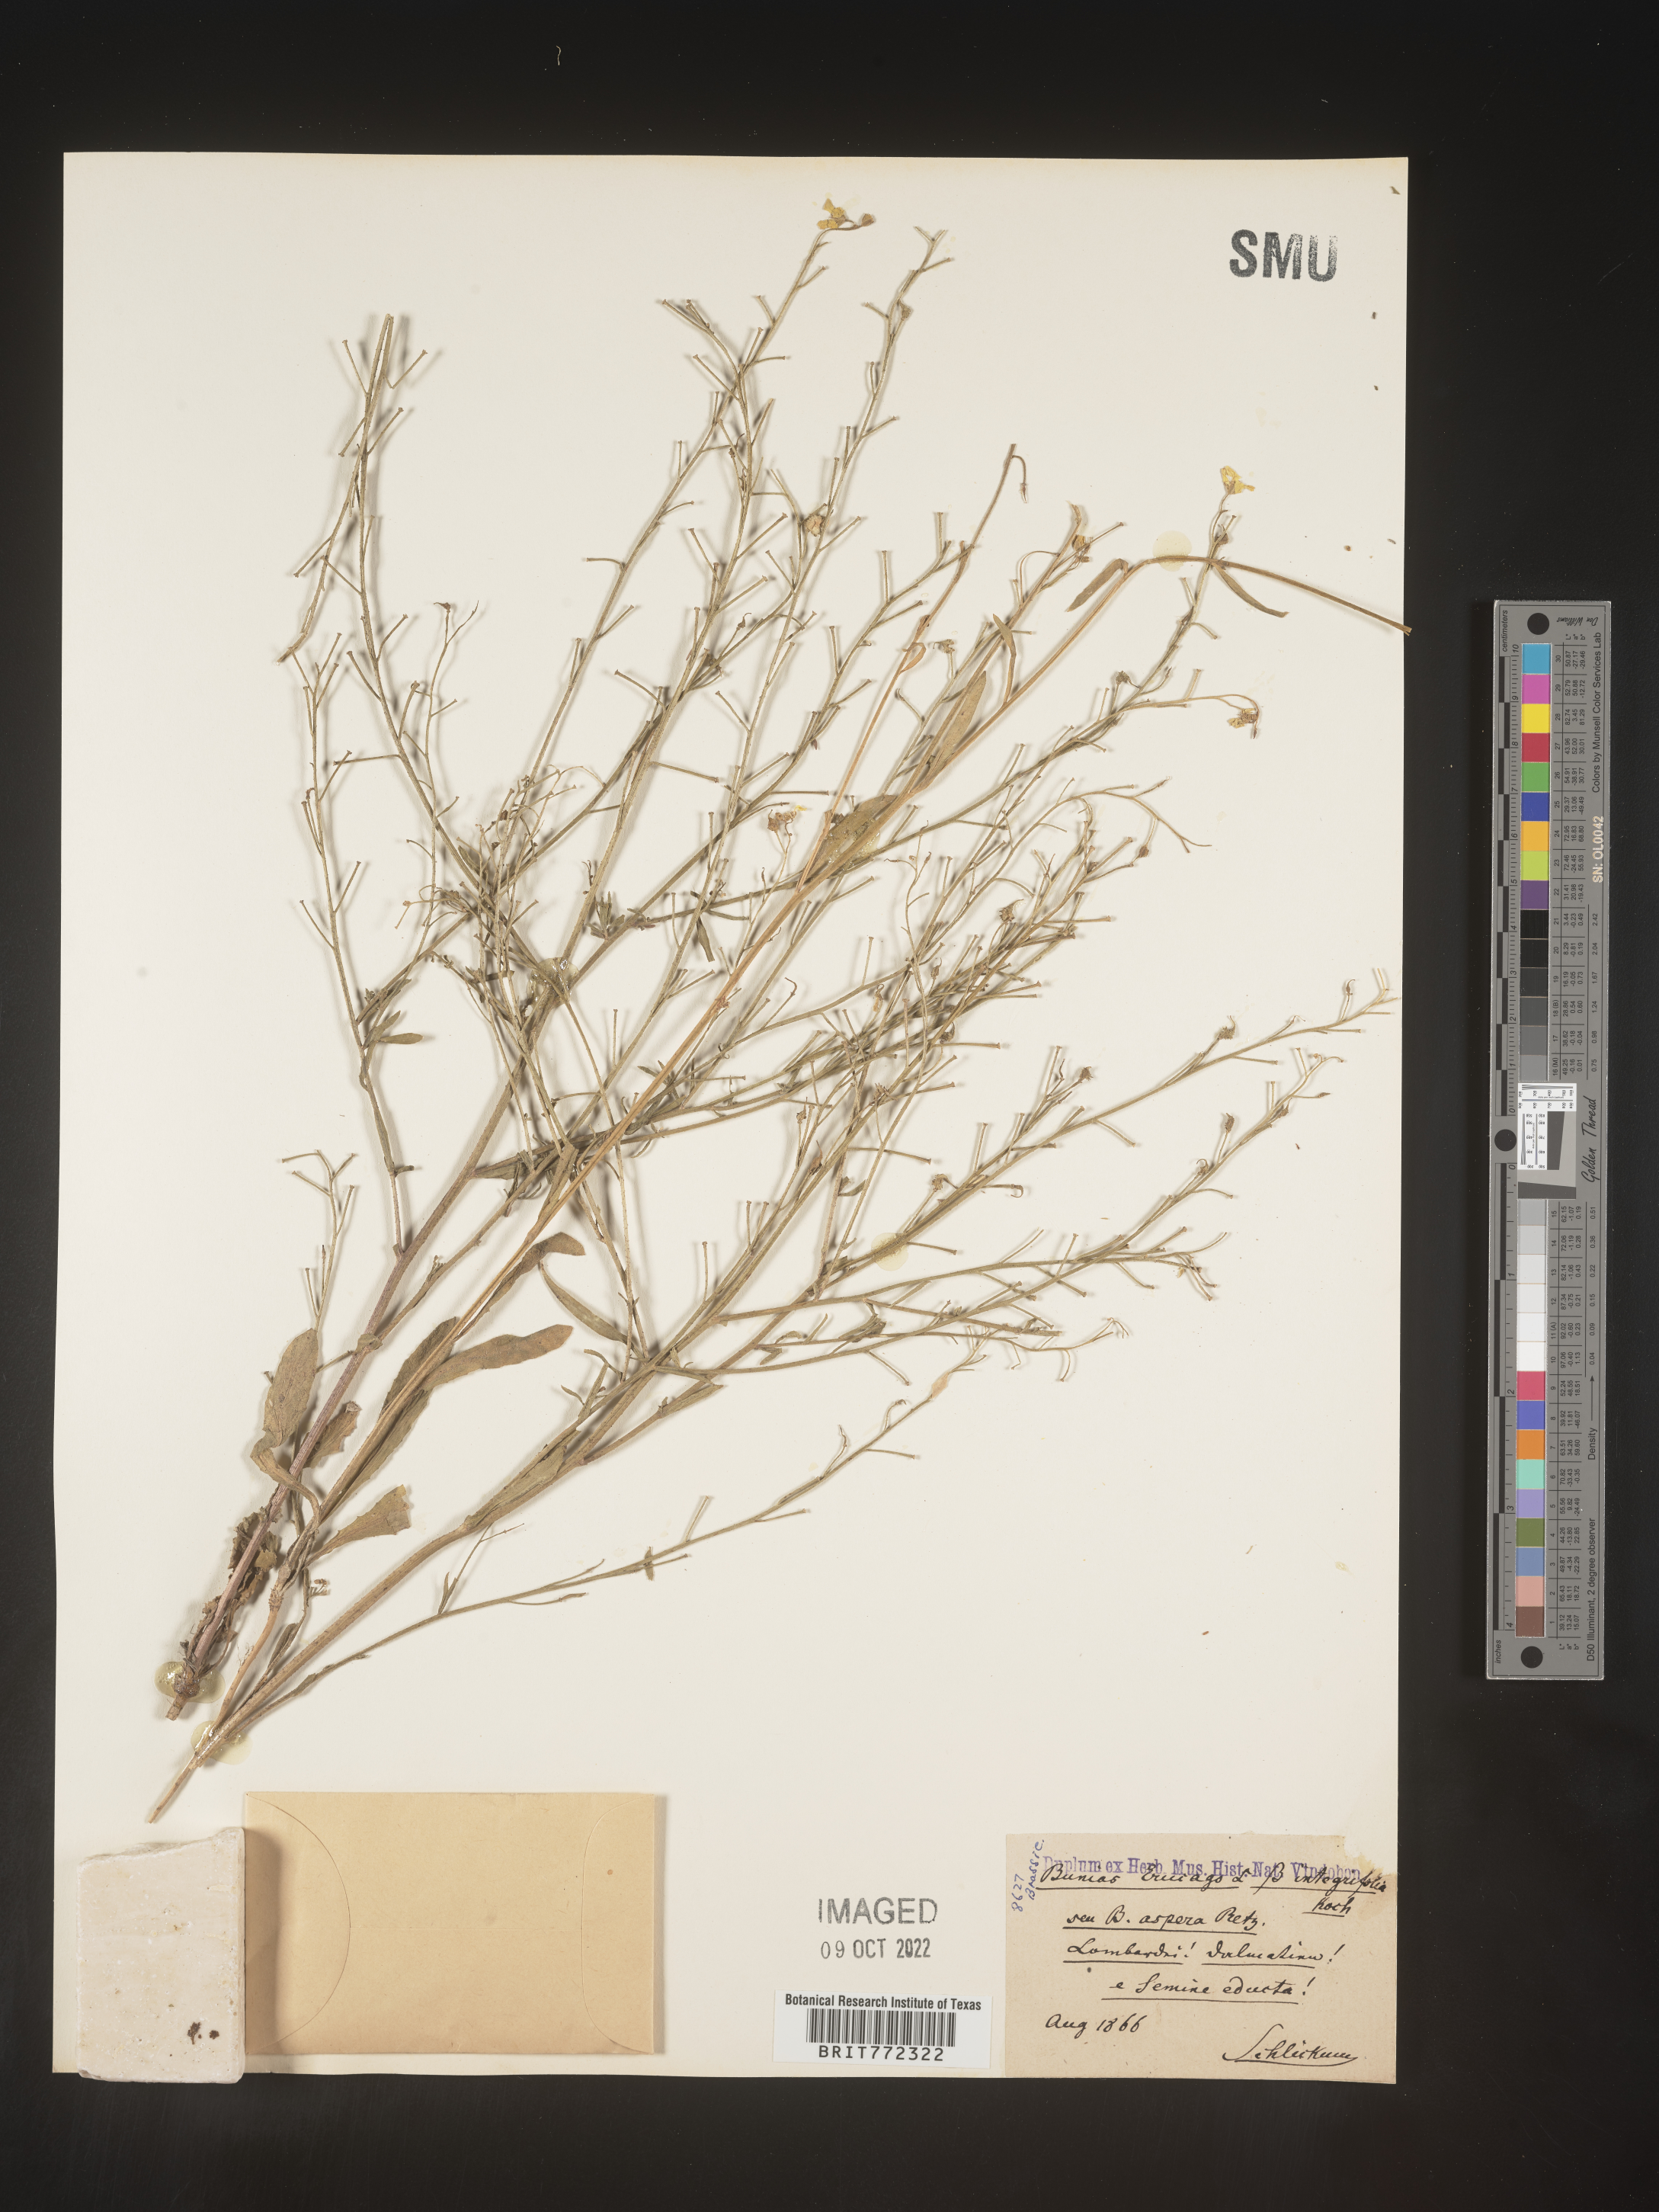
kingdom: Plantae
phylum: Tracheophyta
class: Magnoliopsida
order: Brassicales
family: Brassicaceae
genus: Bunias
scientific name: Bunias
